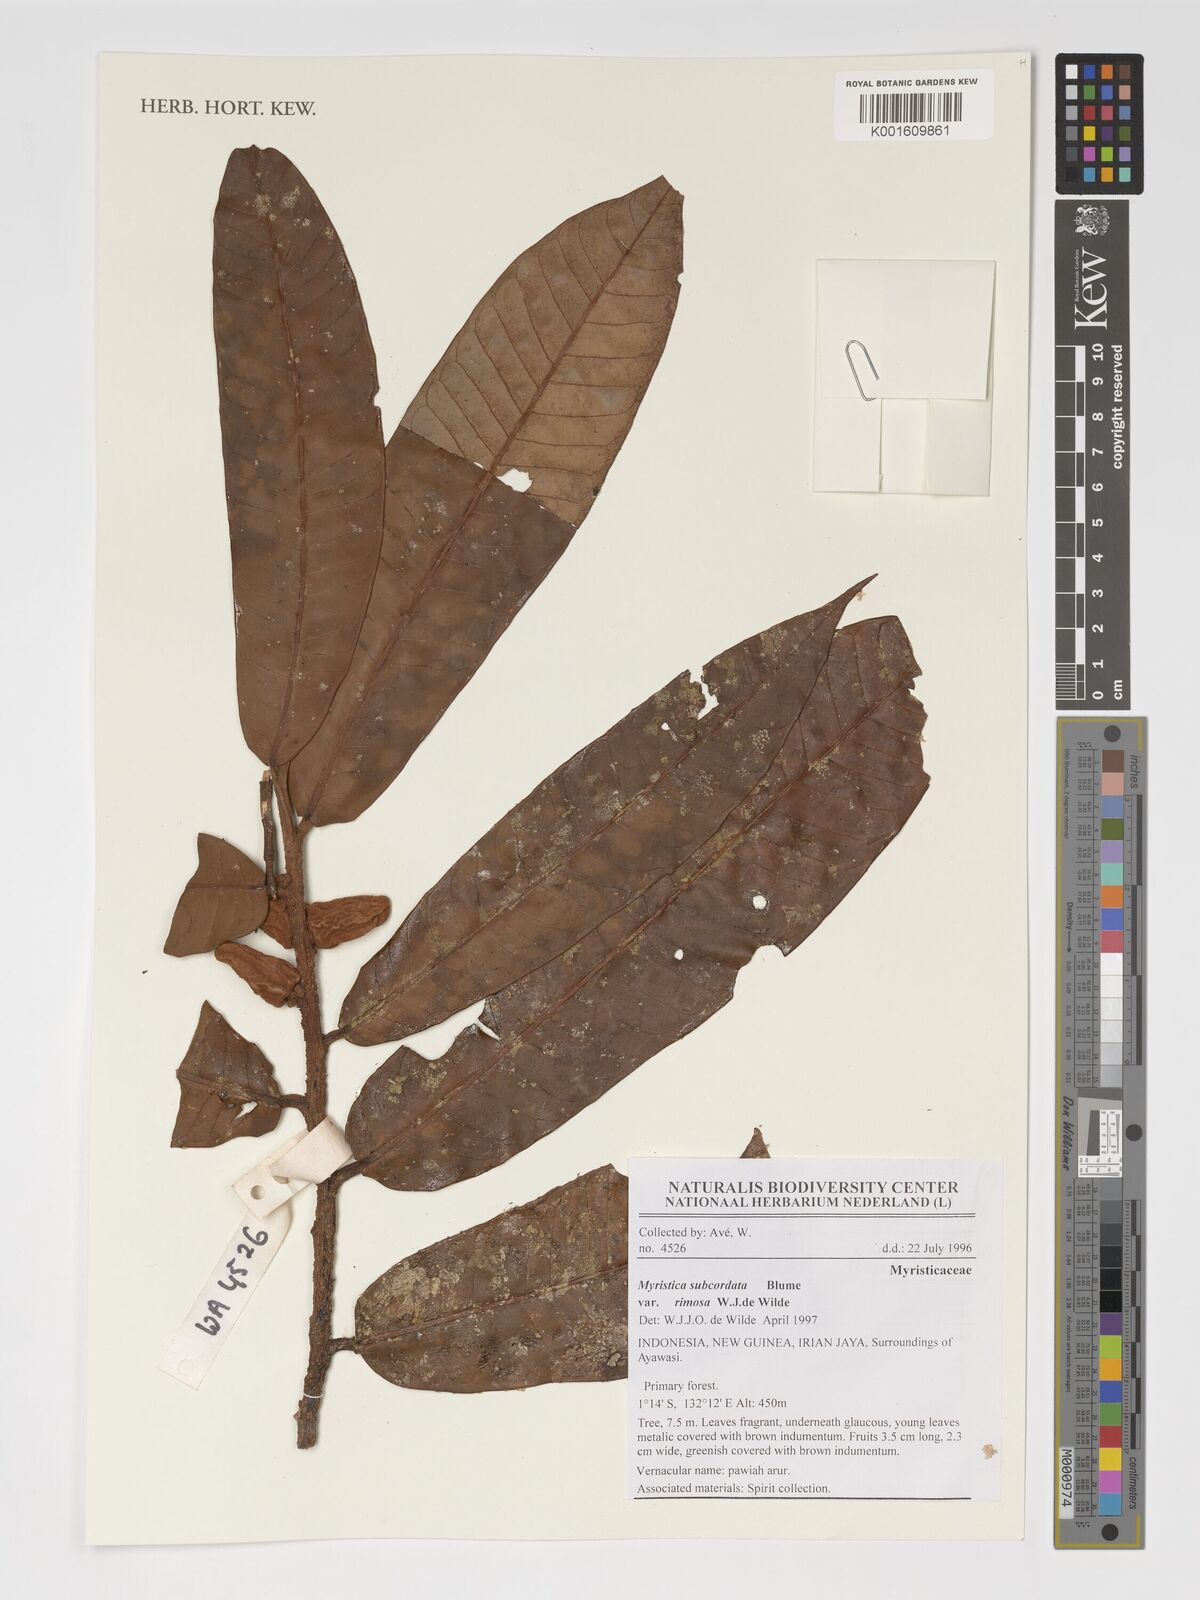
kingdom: Plantae
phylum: Tracheophyta
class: Magnoliopsida
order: Magnoliales
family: Myristicaceae
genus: Myristica
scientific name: Myristica subcordata
